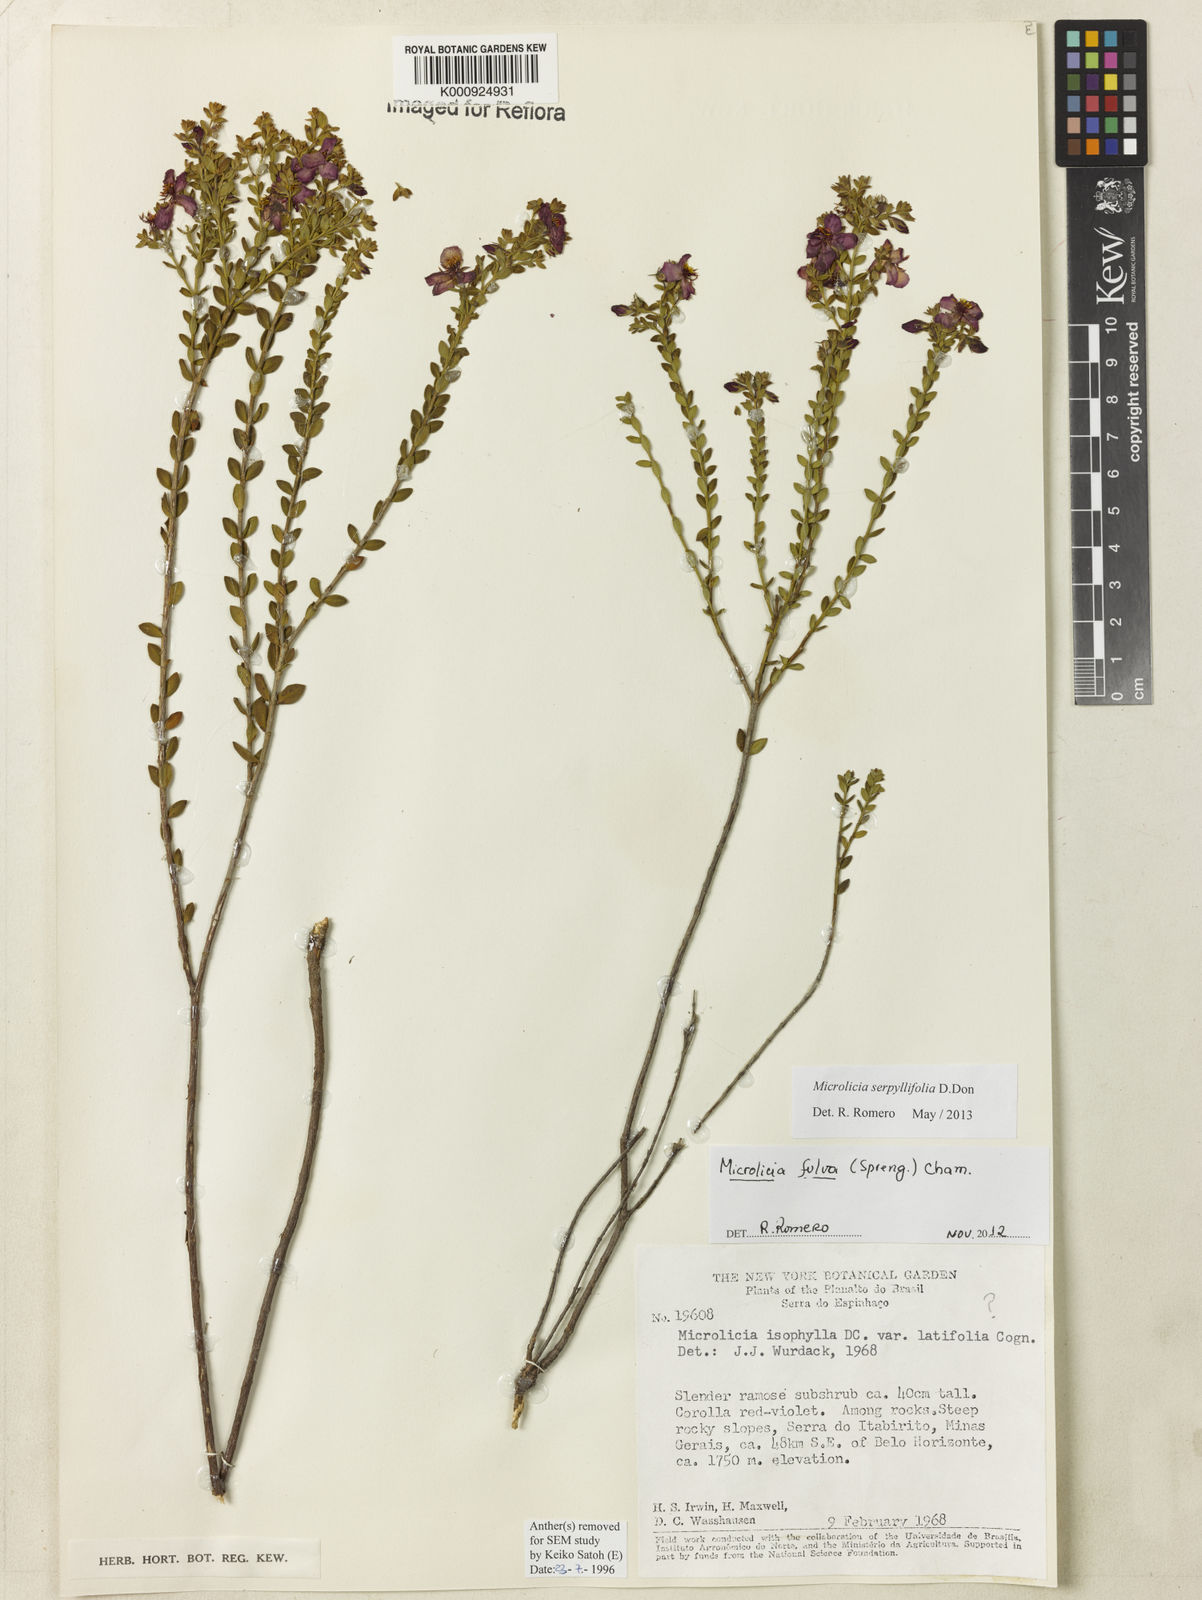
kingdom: Plantae
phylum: Tracheophyta
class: Magnoliopsida
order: Myrtales
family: Melastomataceae
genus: Microlicia
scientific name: Microlicia fulva
